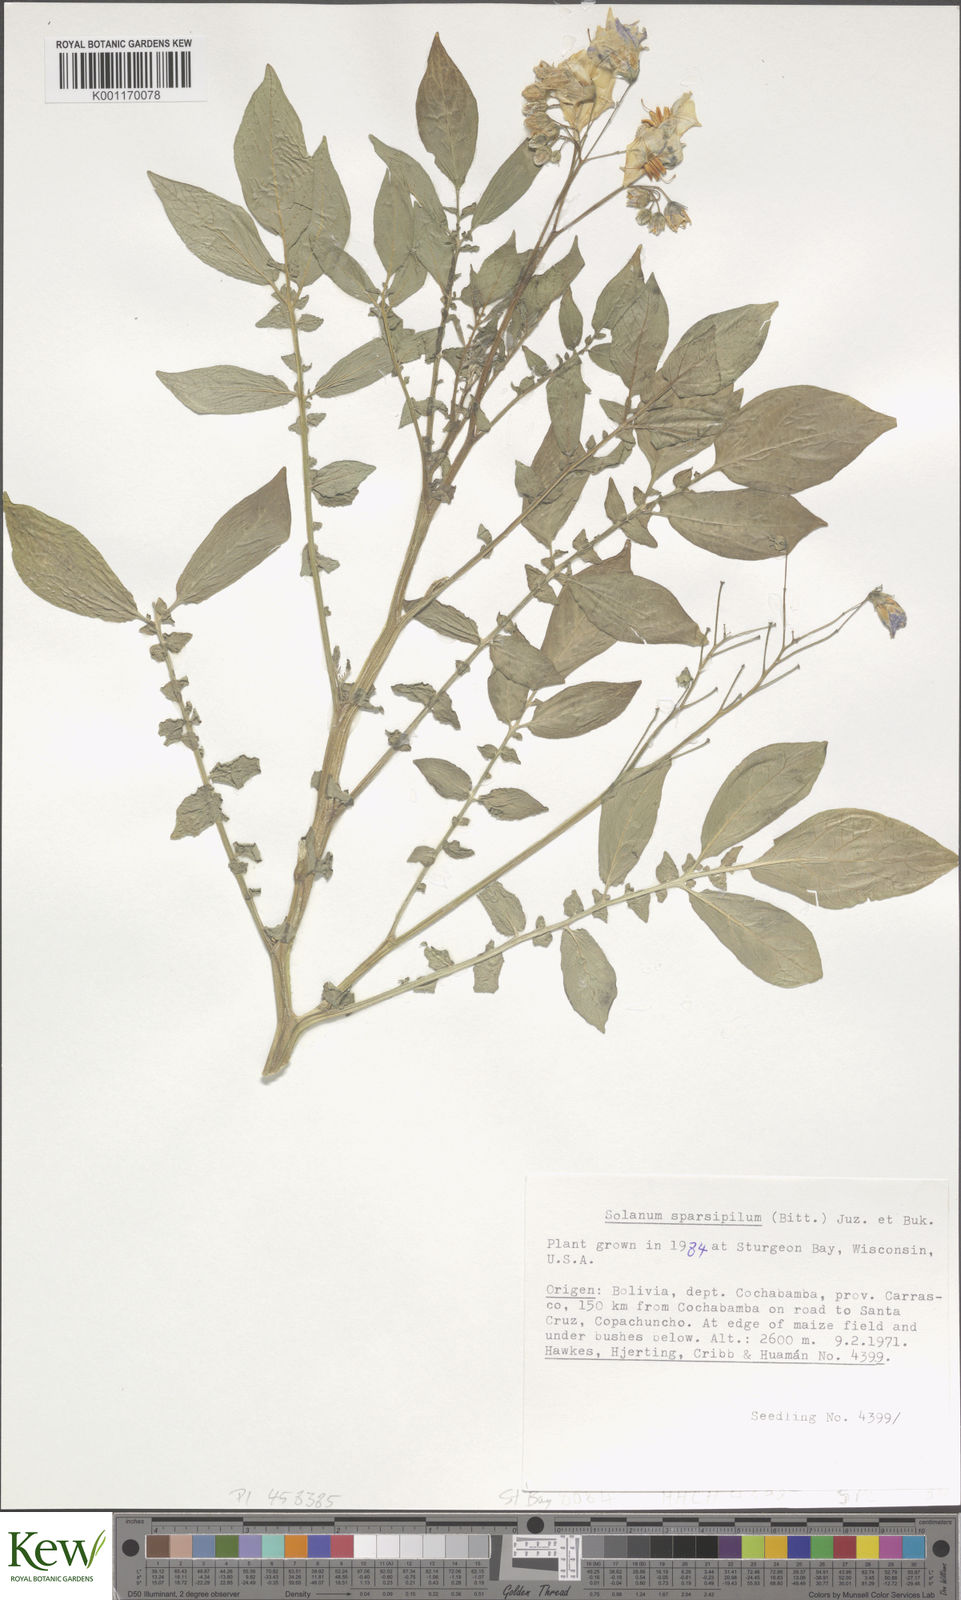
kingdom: Plantae
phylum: Tracheophyta
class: Magnoliopsida
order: Solanales
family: Solanaceae
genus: Solanum
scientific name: Solanum brevicaule
